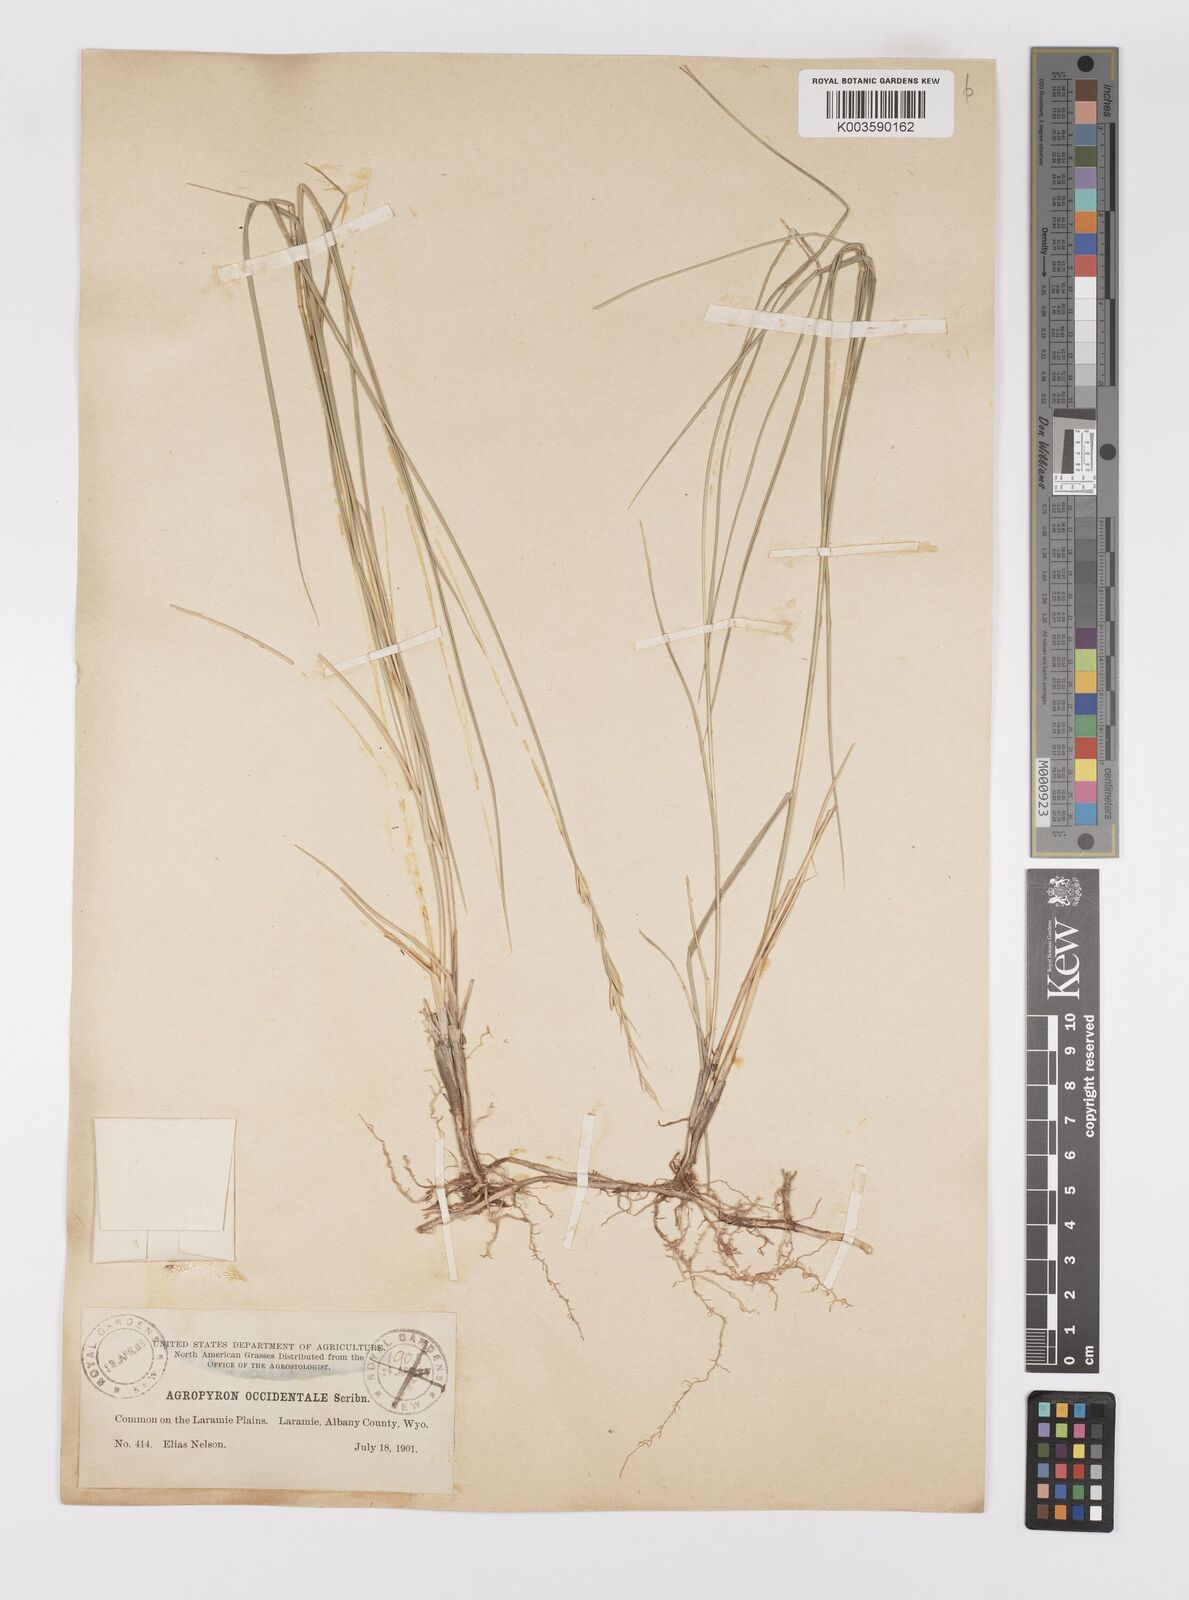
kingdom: Plantae
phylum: Tracheophyta
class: Liliopsida
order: Poales
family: Poaceae
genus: Elymus
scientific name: Elymus smithii
